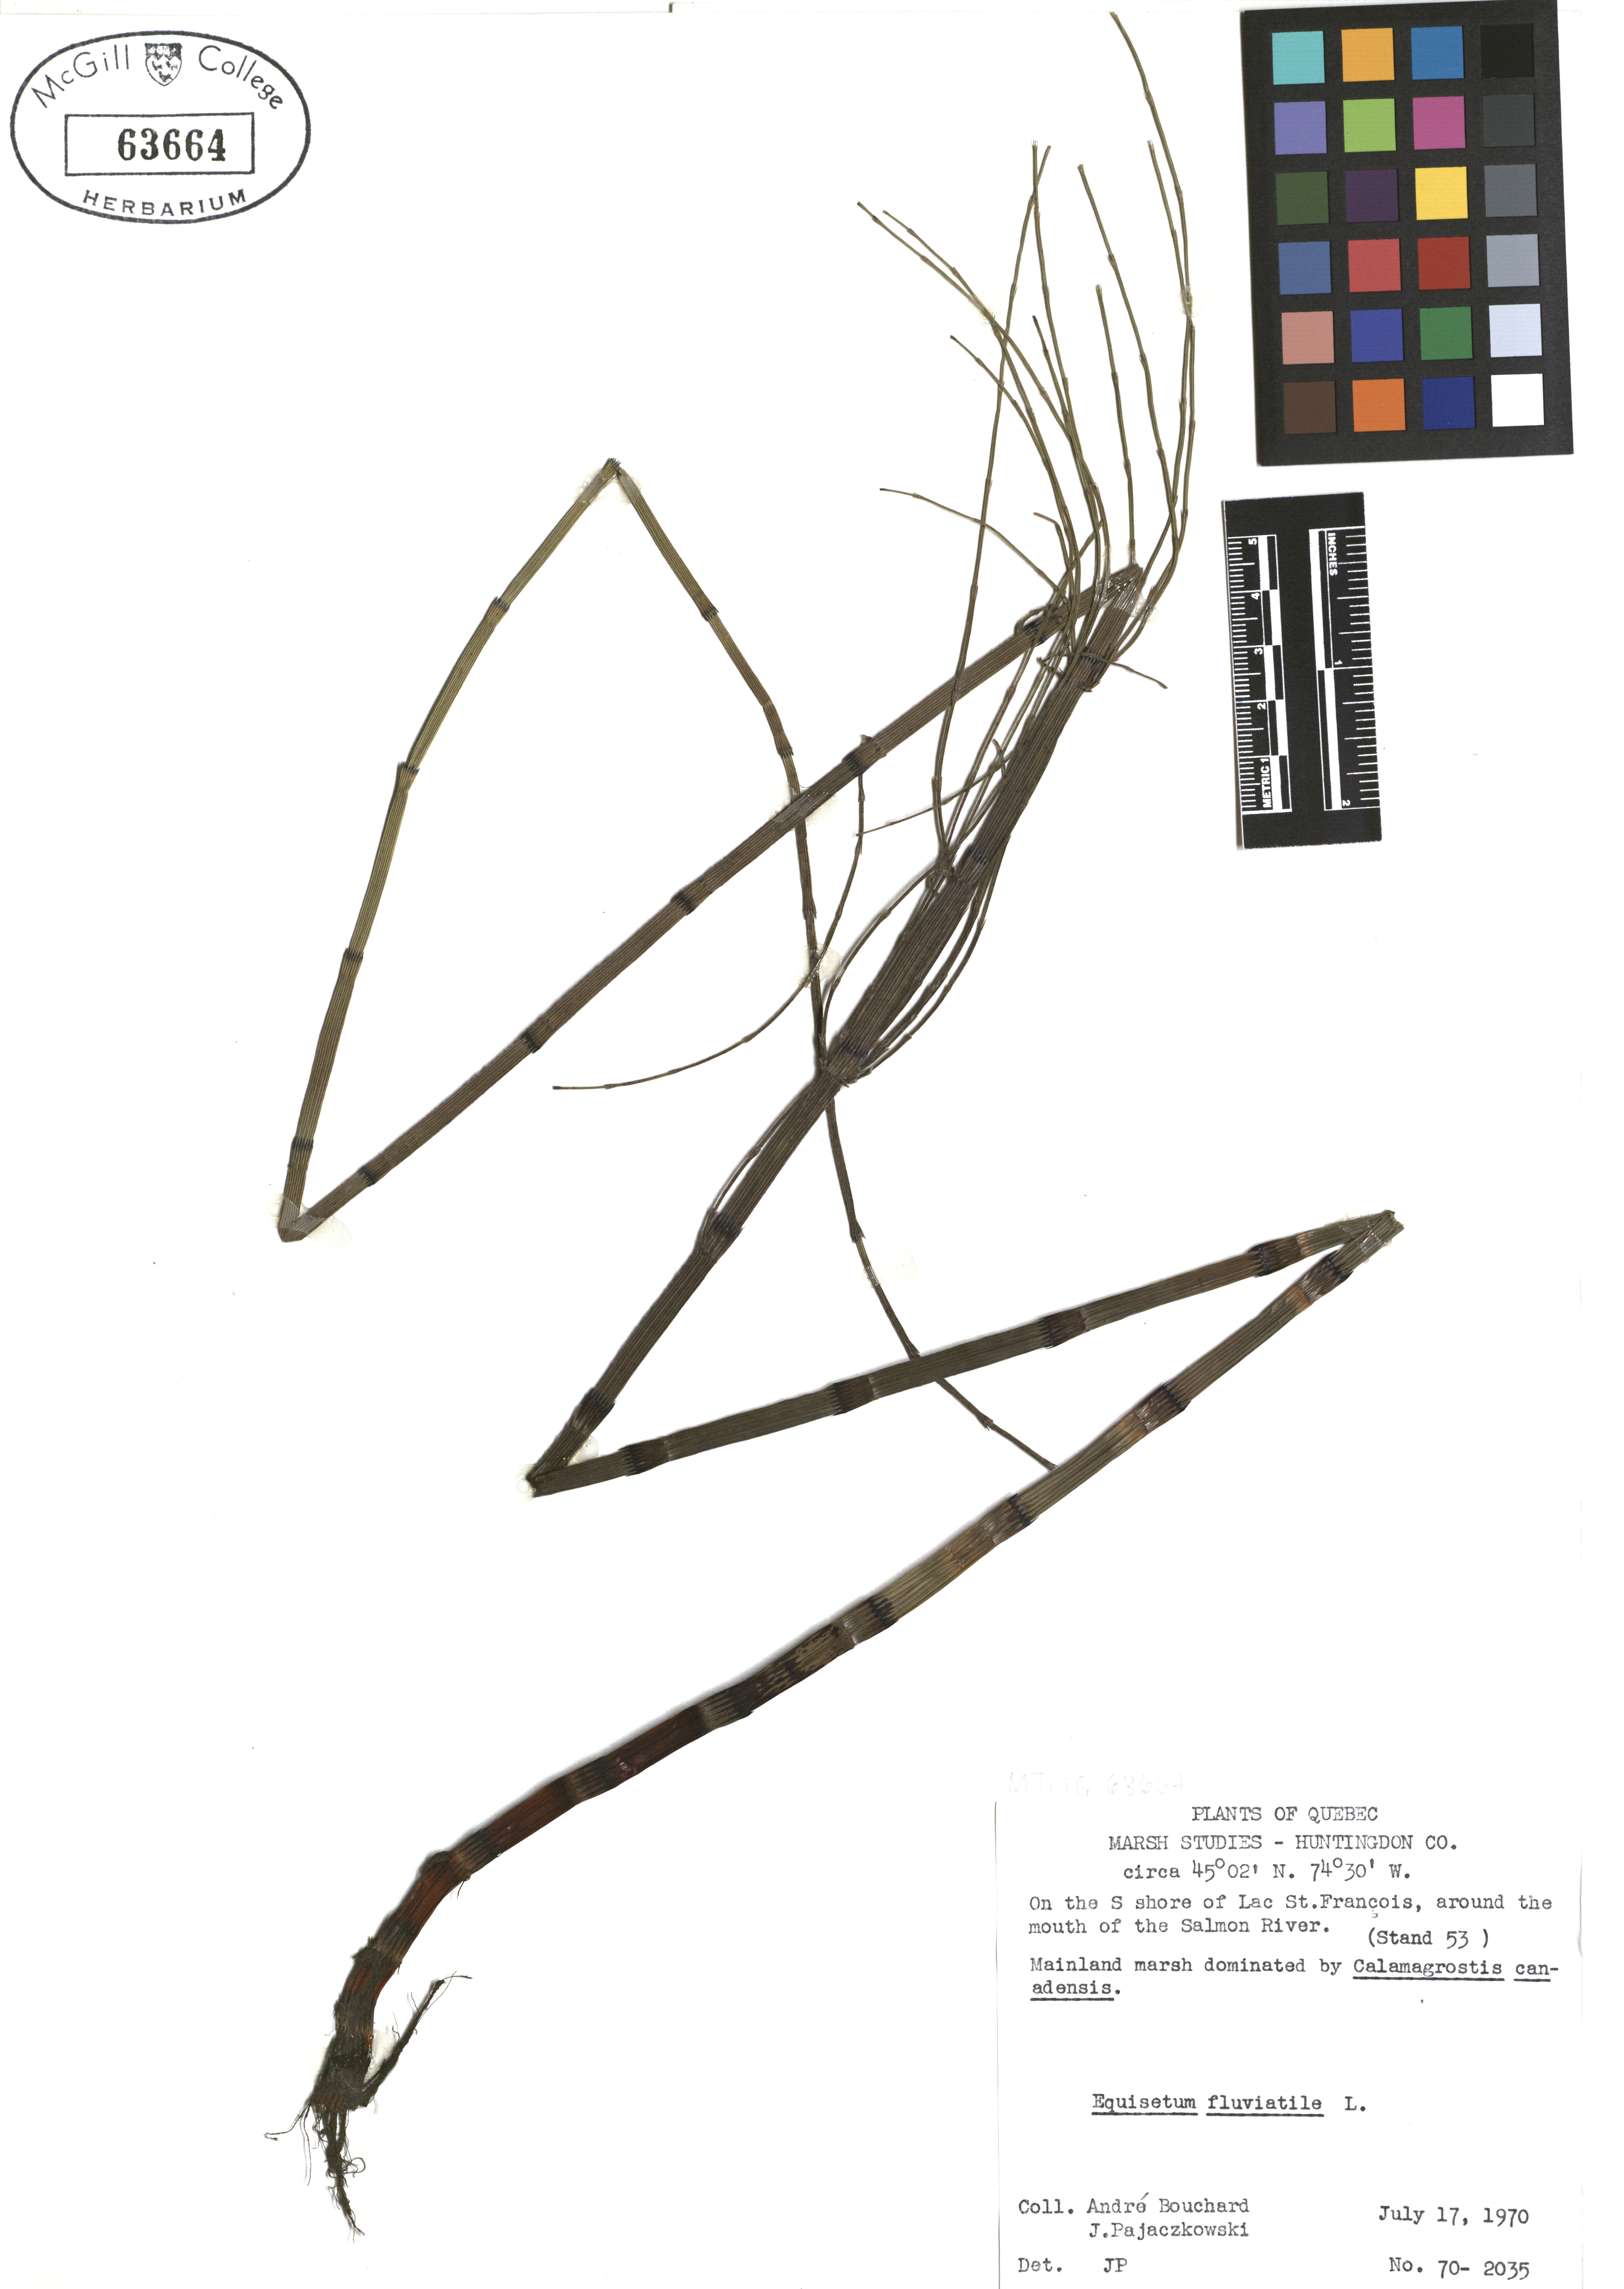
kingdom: Plantae
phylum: Tracheophyta
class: Polypodiopsida
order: Equisetales
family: Equisetaceae
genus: Equisetum
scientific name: Equisetum fluviatile
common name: Water horsetail
